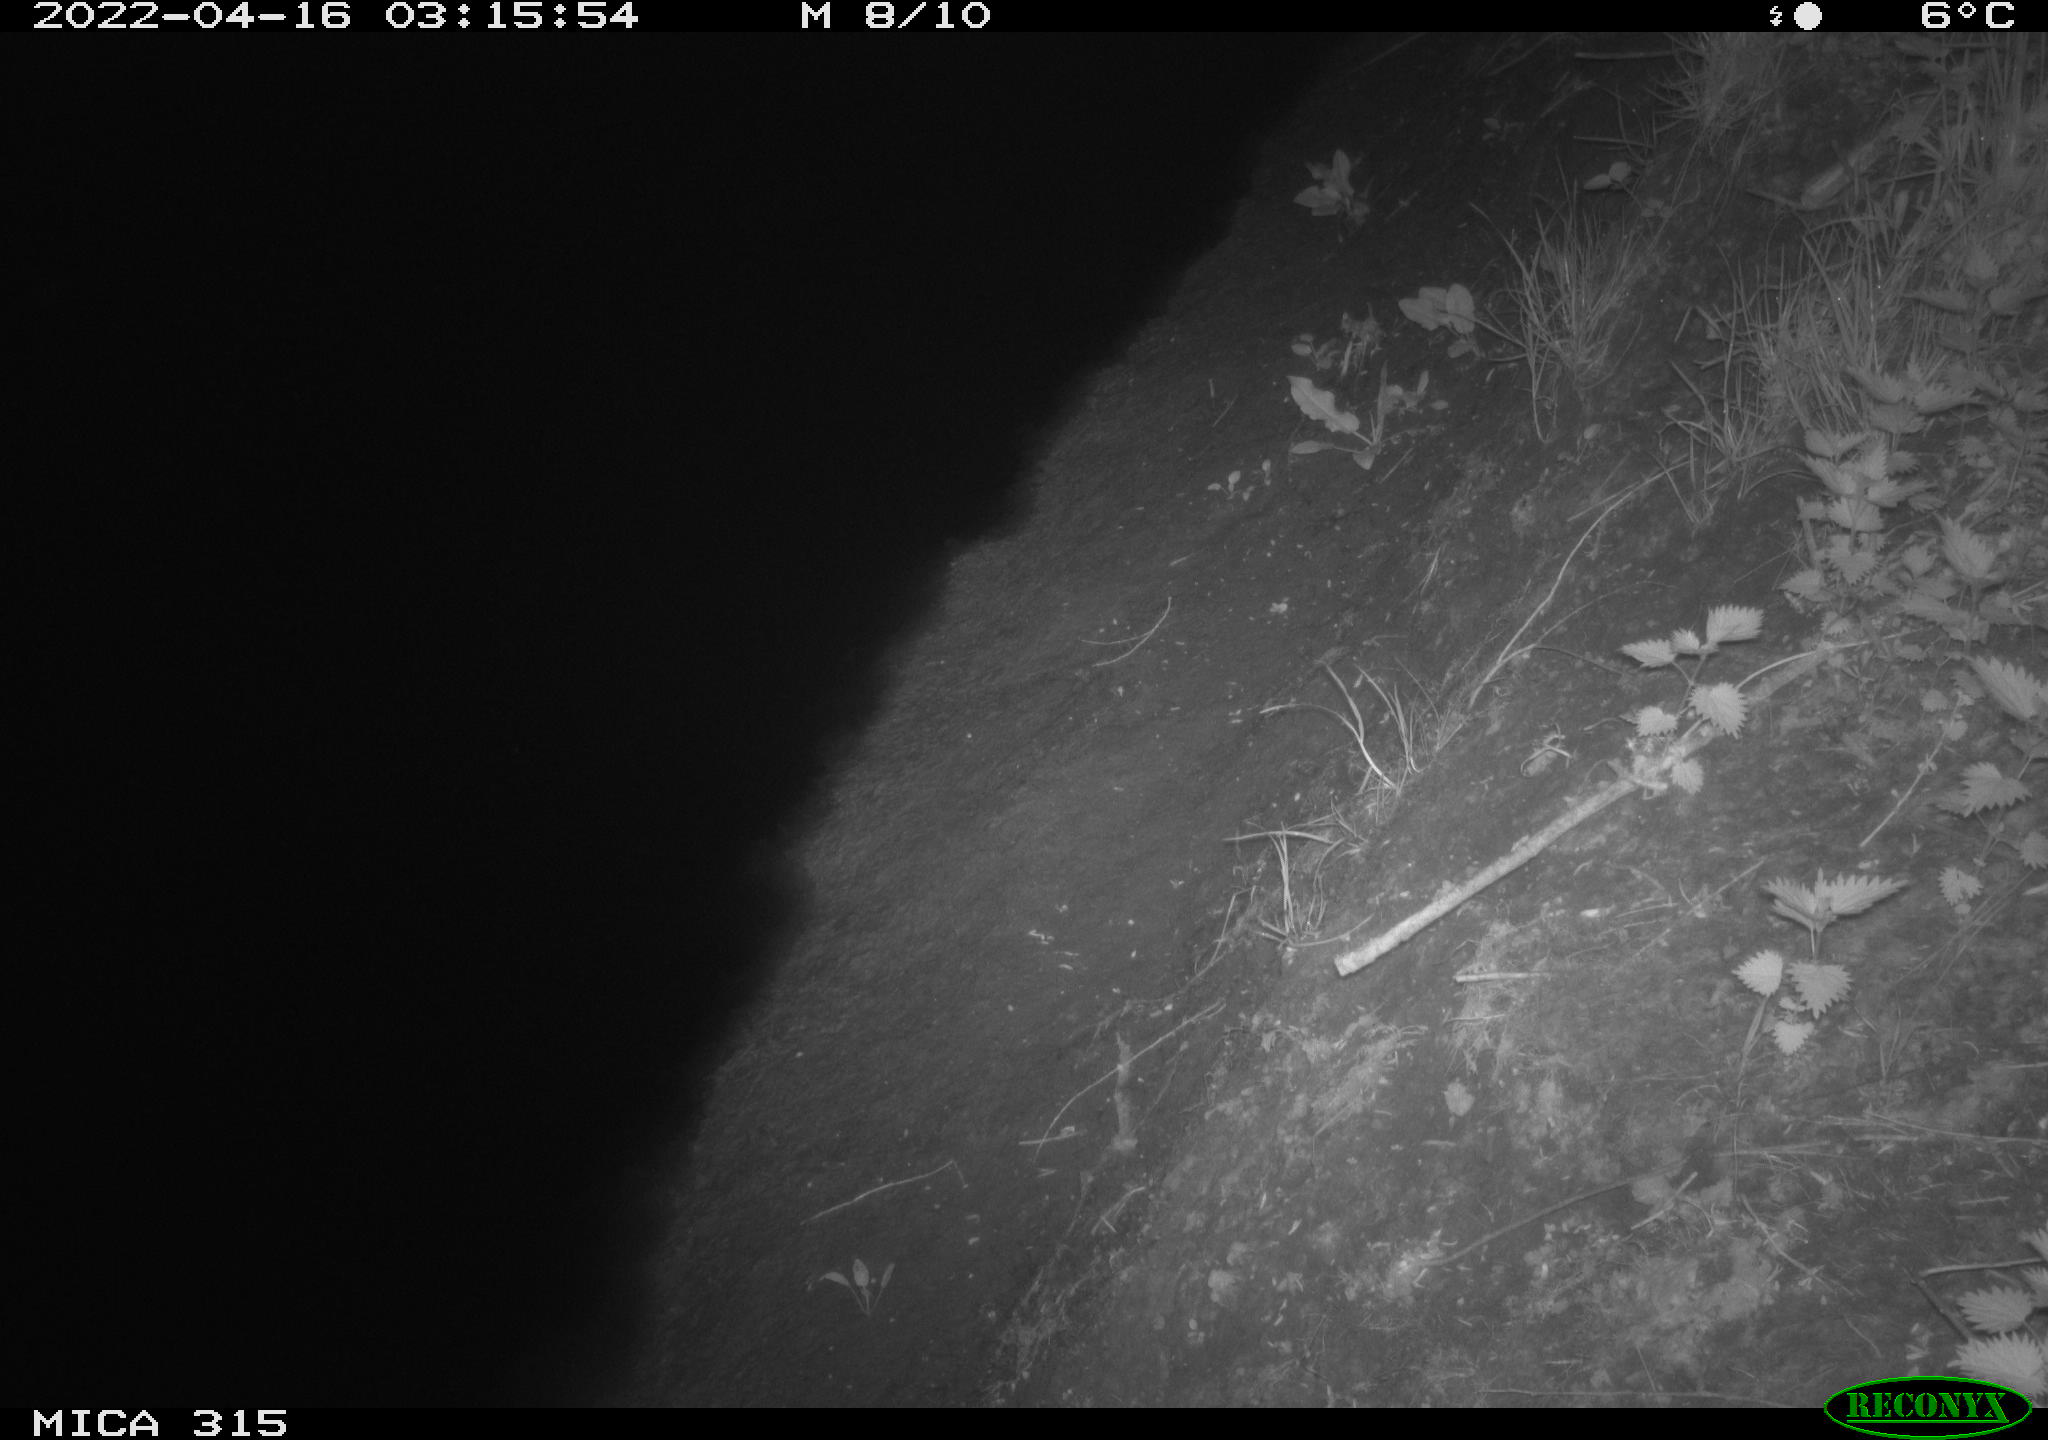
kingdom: Animalia
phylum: Chordata
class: Mammalia
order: Rodentia
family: Muridae
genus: Rattus
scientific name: Rattus norvegicus
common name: Brown rat
